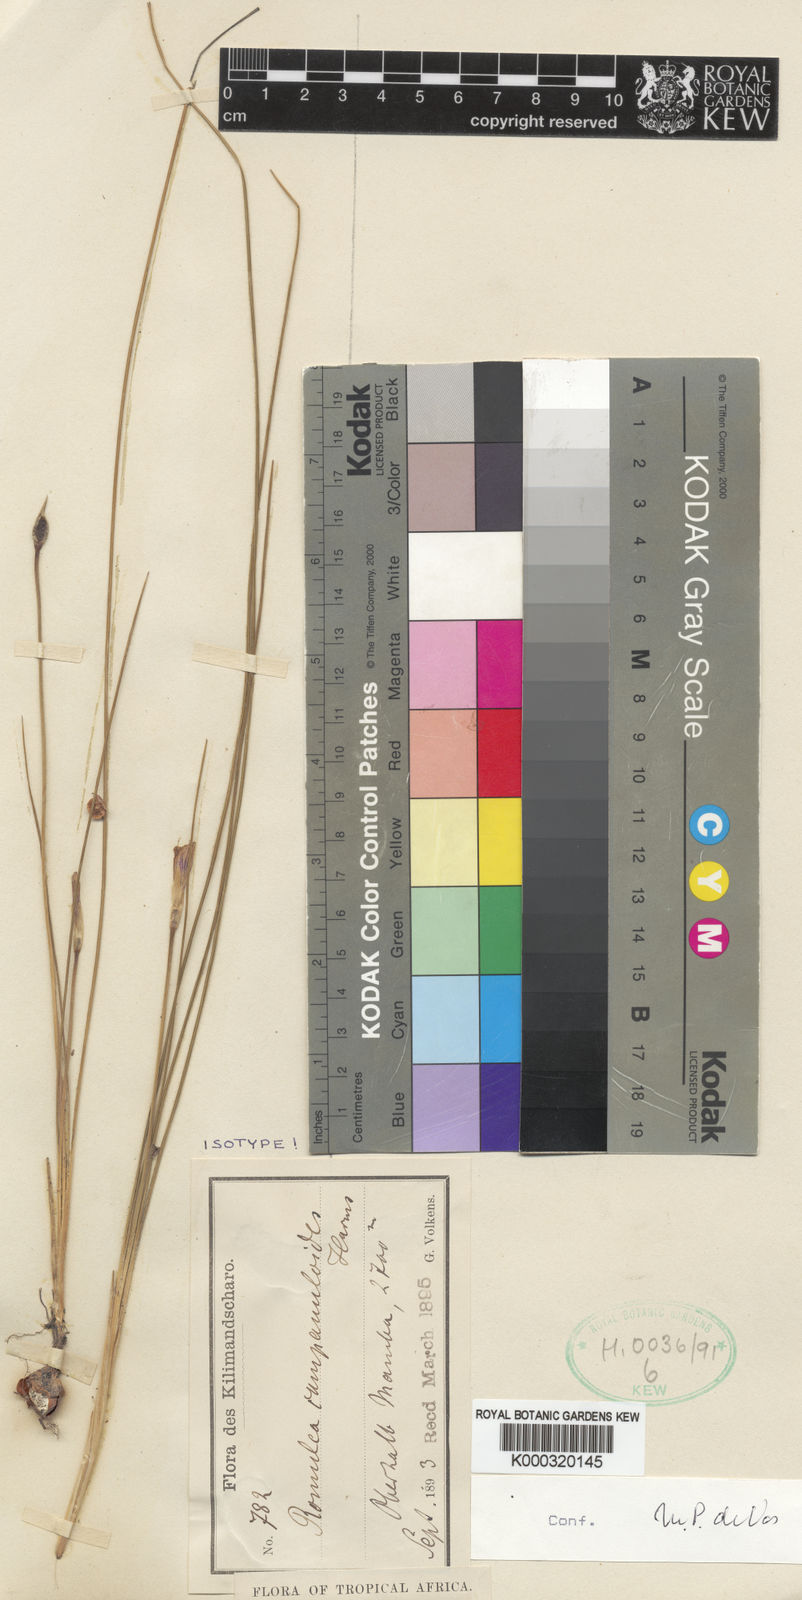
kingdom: Plantae
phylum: Tracheophyta
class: Liliopsida
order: Asparagales
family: Iridaceae
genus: Romulea
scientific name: Romulea camerooniana
